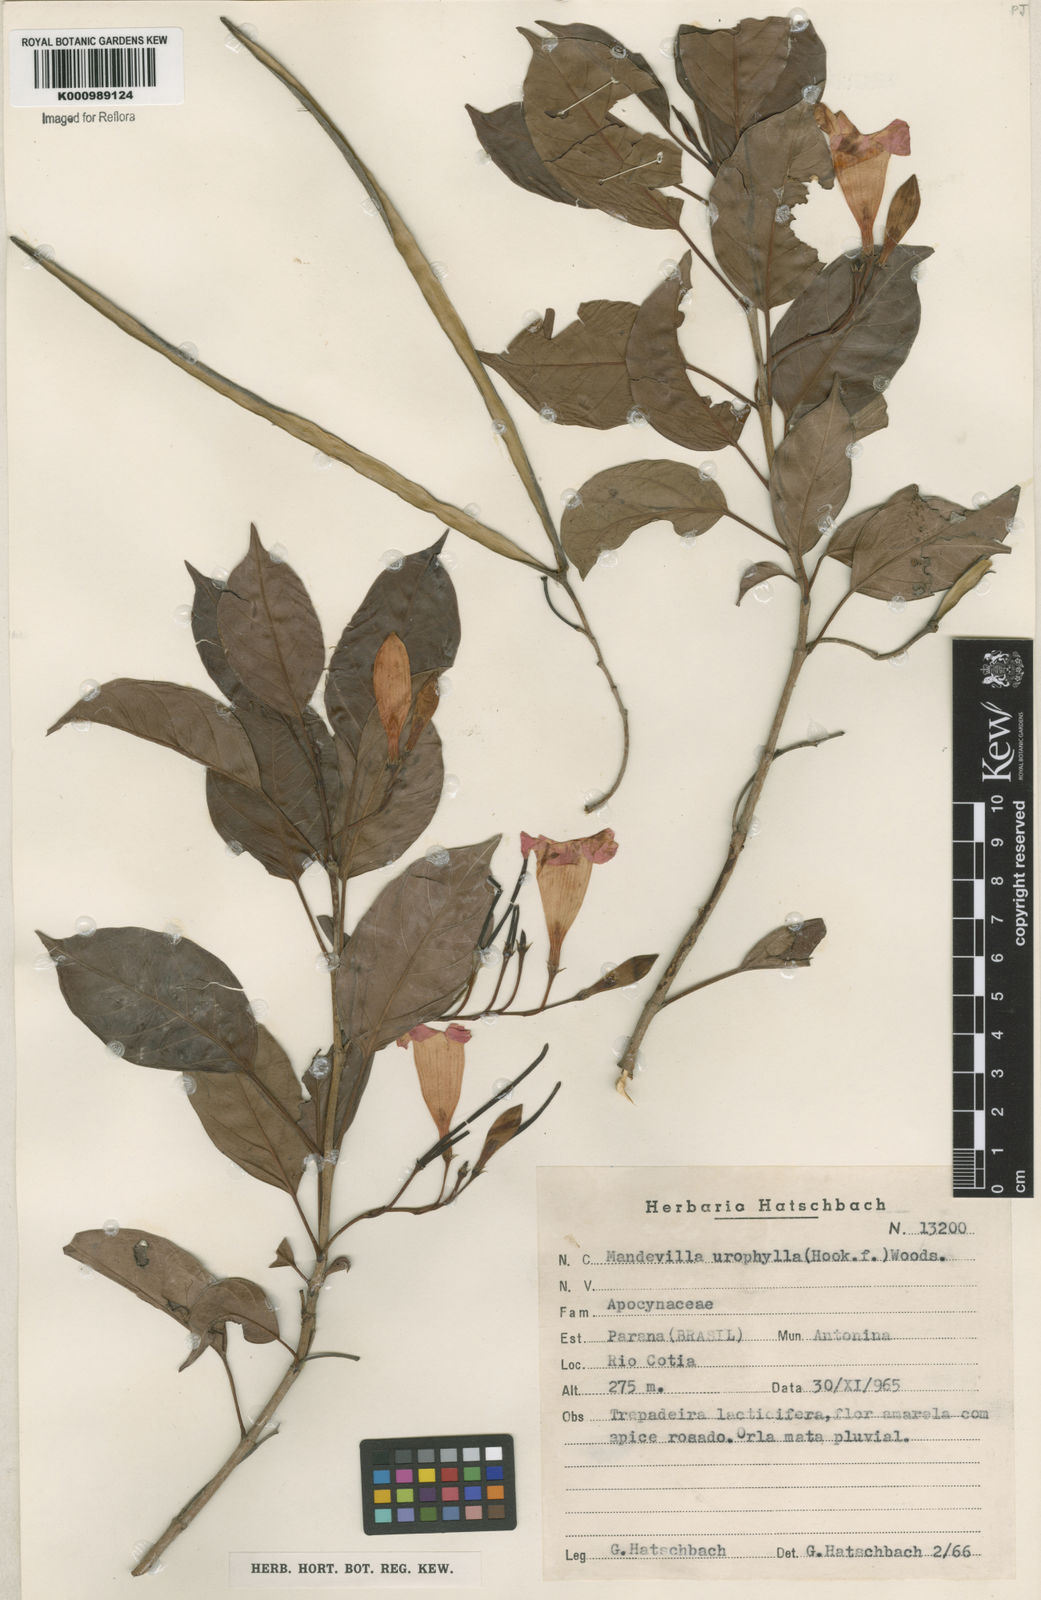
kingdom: Plantae
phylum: Tracheophyta
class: Magnoliopsida
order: Gentianales
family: Apocynaceae
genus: Mandevilla
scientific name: Mandevilla urophylla
